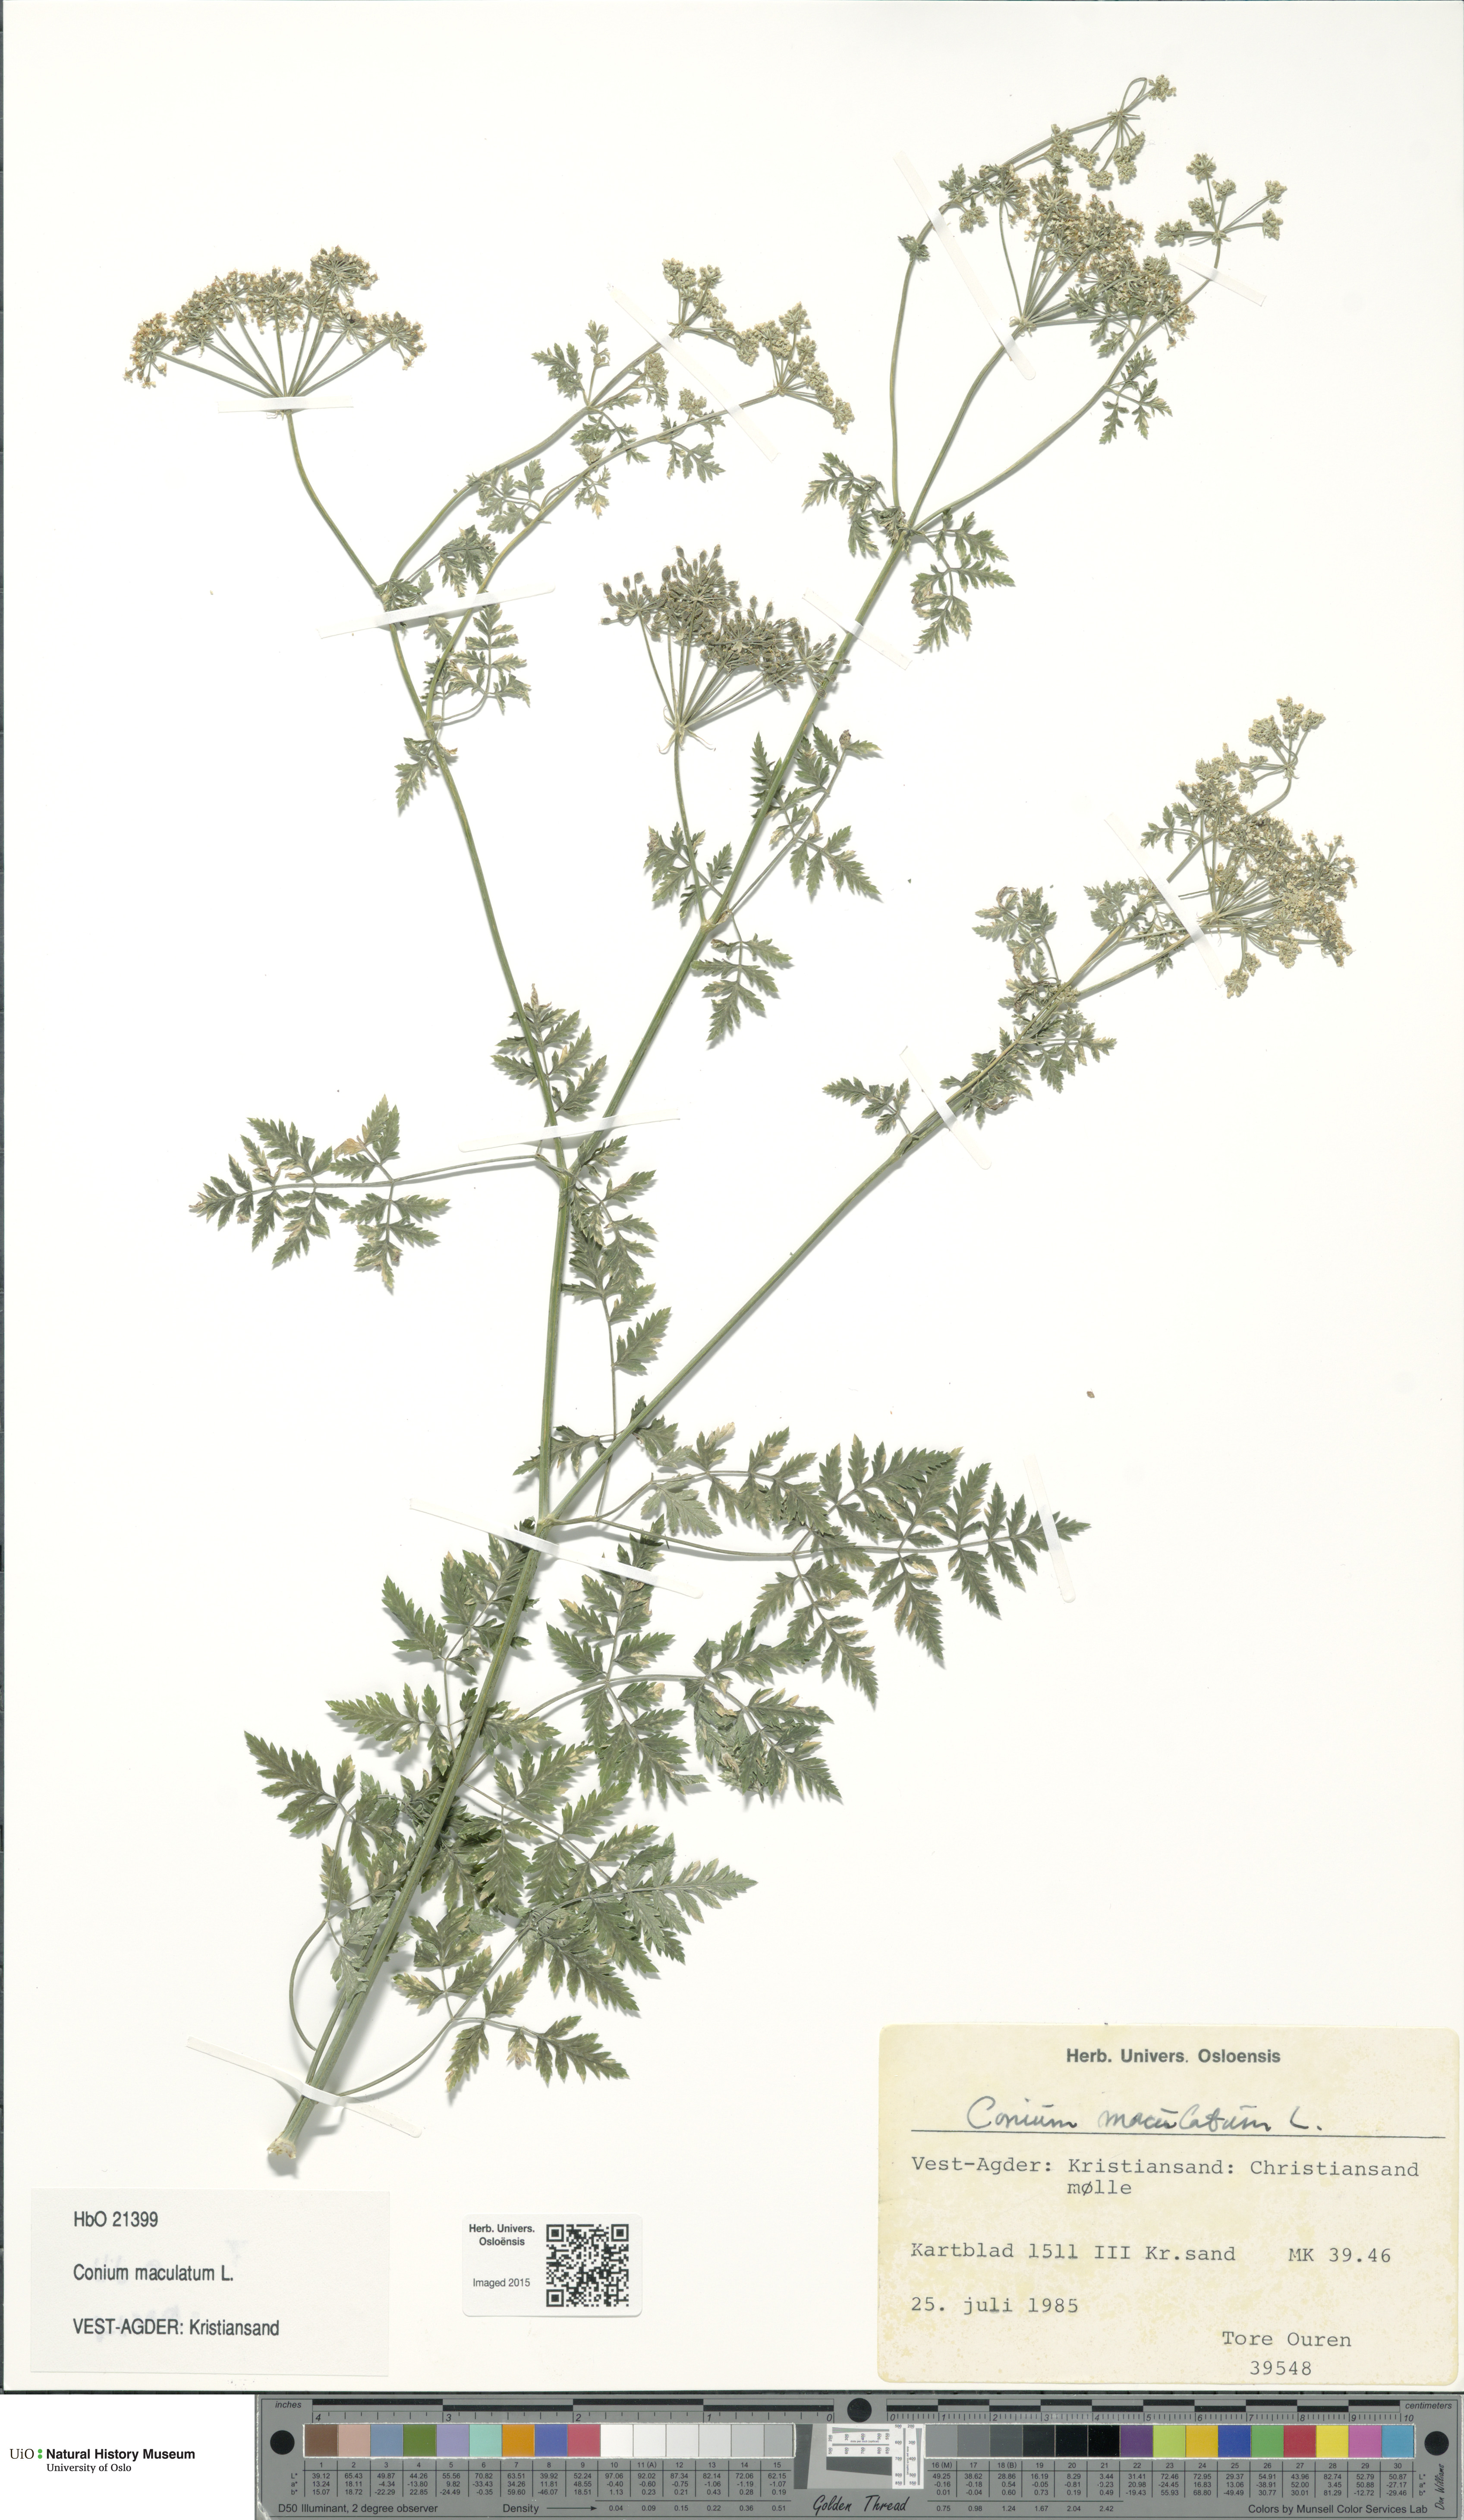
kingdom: Plantae
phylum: Tracheophyta
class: Magnoliopsida
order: Apiales
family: Apiaceae
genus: Conium
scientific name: Conium maculatum
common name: Hemlock
